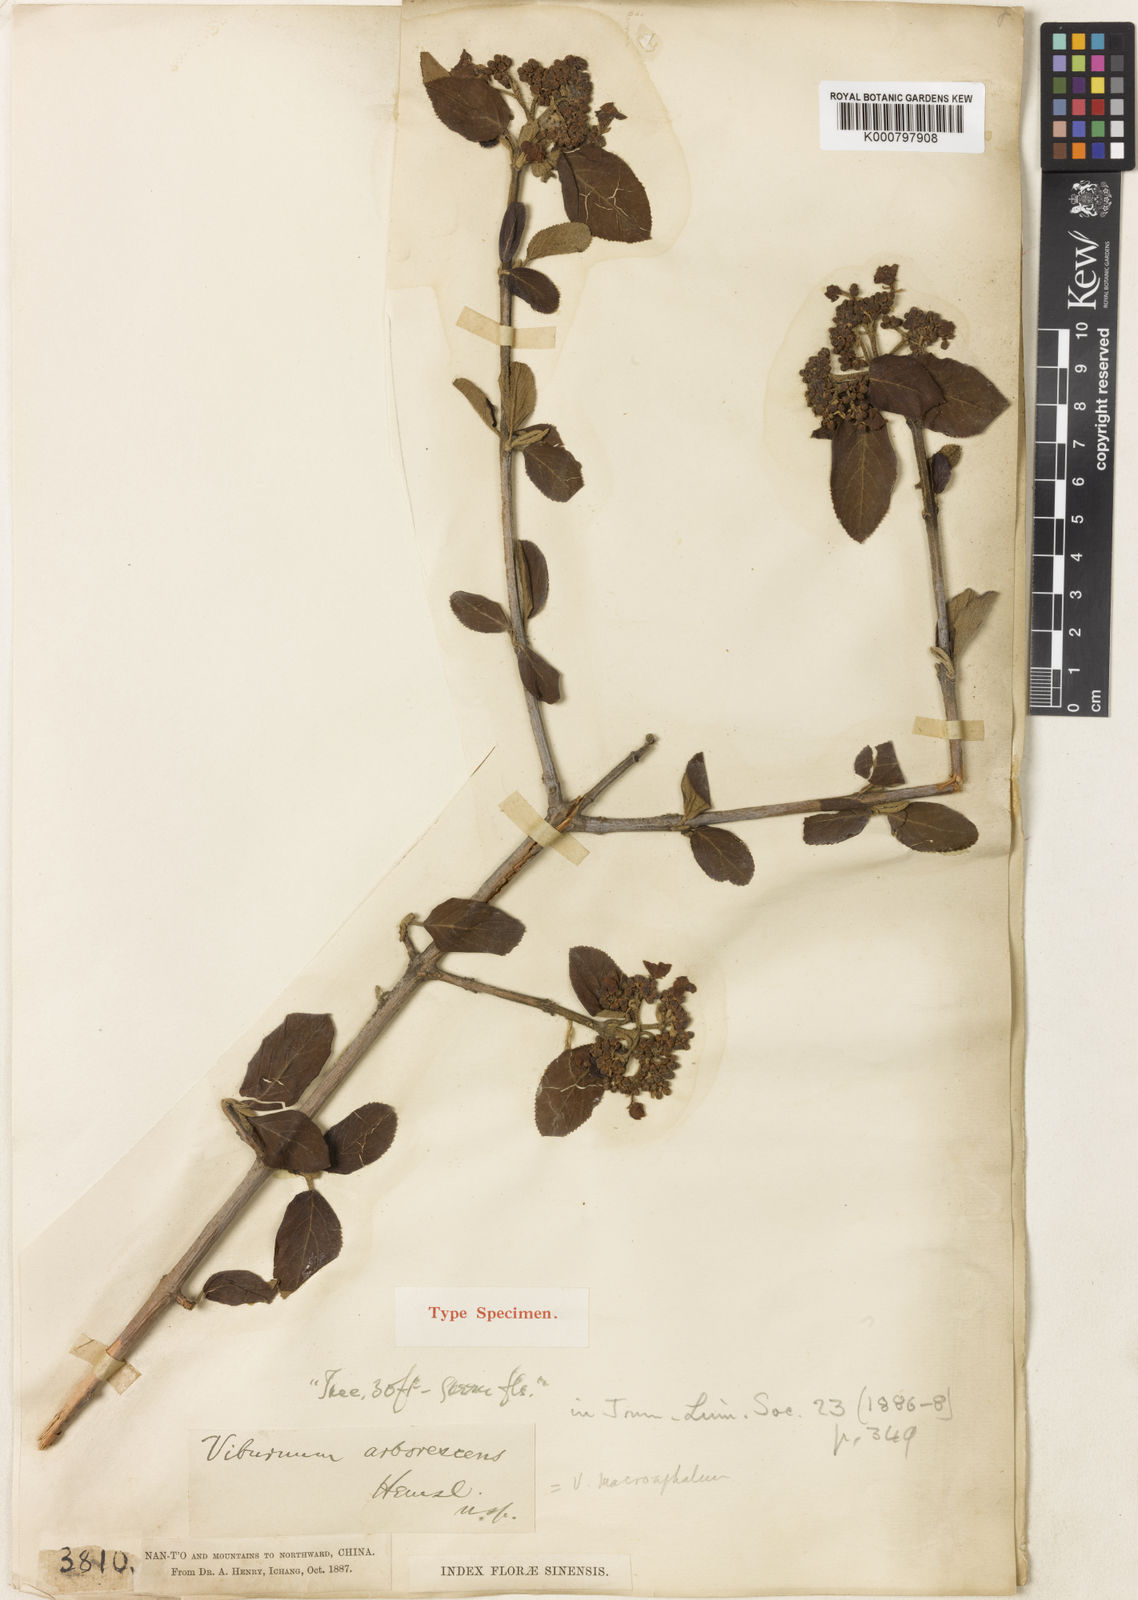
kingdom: Plantae
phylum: Tracheophyta
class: Magnoliopsida
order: Dipsacales
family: Viburnaceae
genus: Viburnum
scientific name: Viburnum macrocephalum
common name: Chinese snowball viburnum
